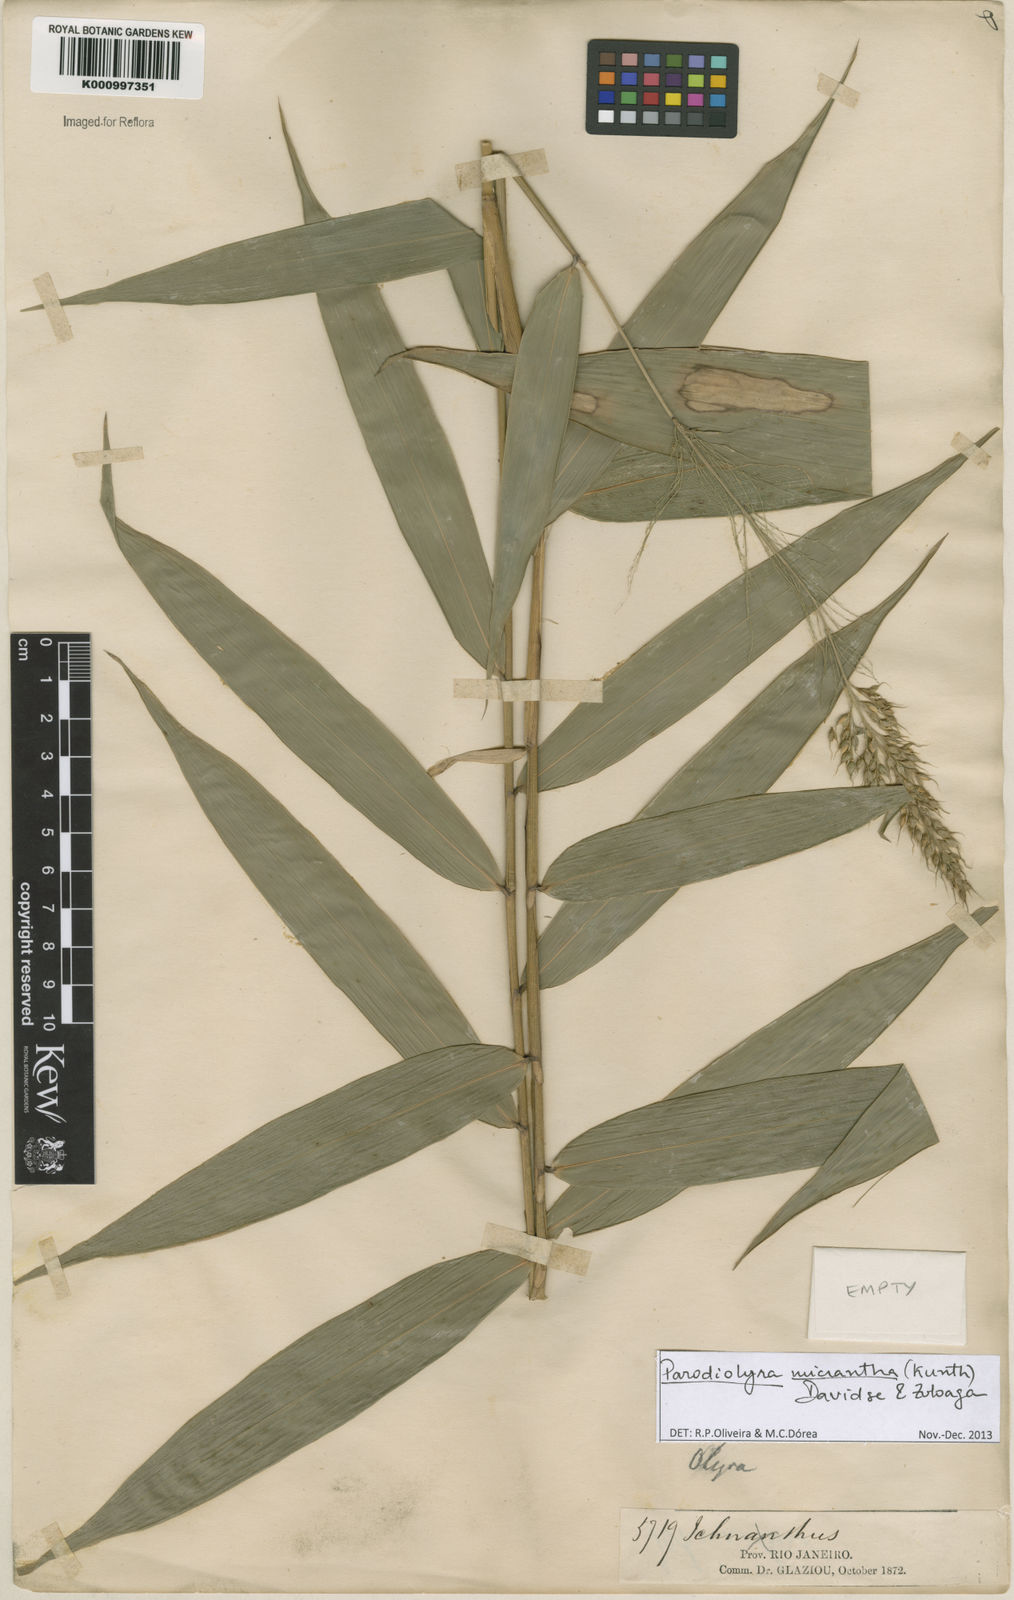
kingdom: Plantae
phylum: Tracheophyta
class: Liliopsida
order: Poales
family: Poaceae
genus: Taquara
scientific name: Taquara micrantha
